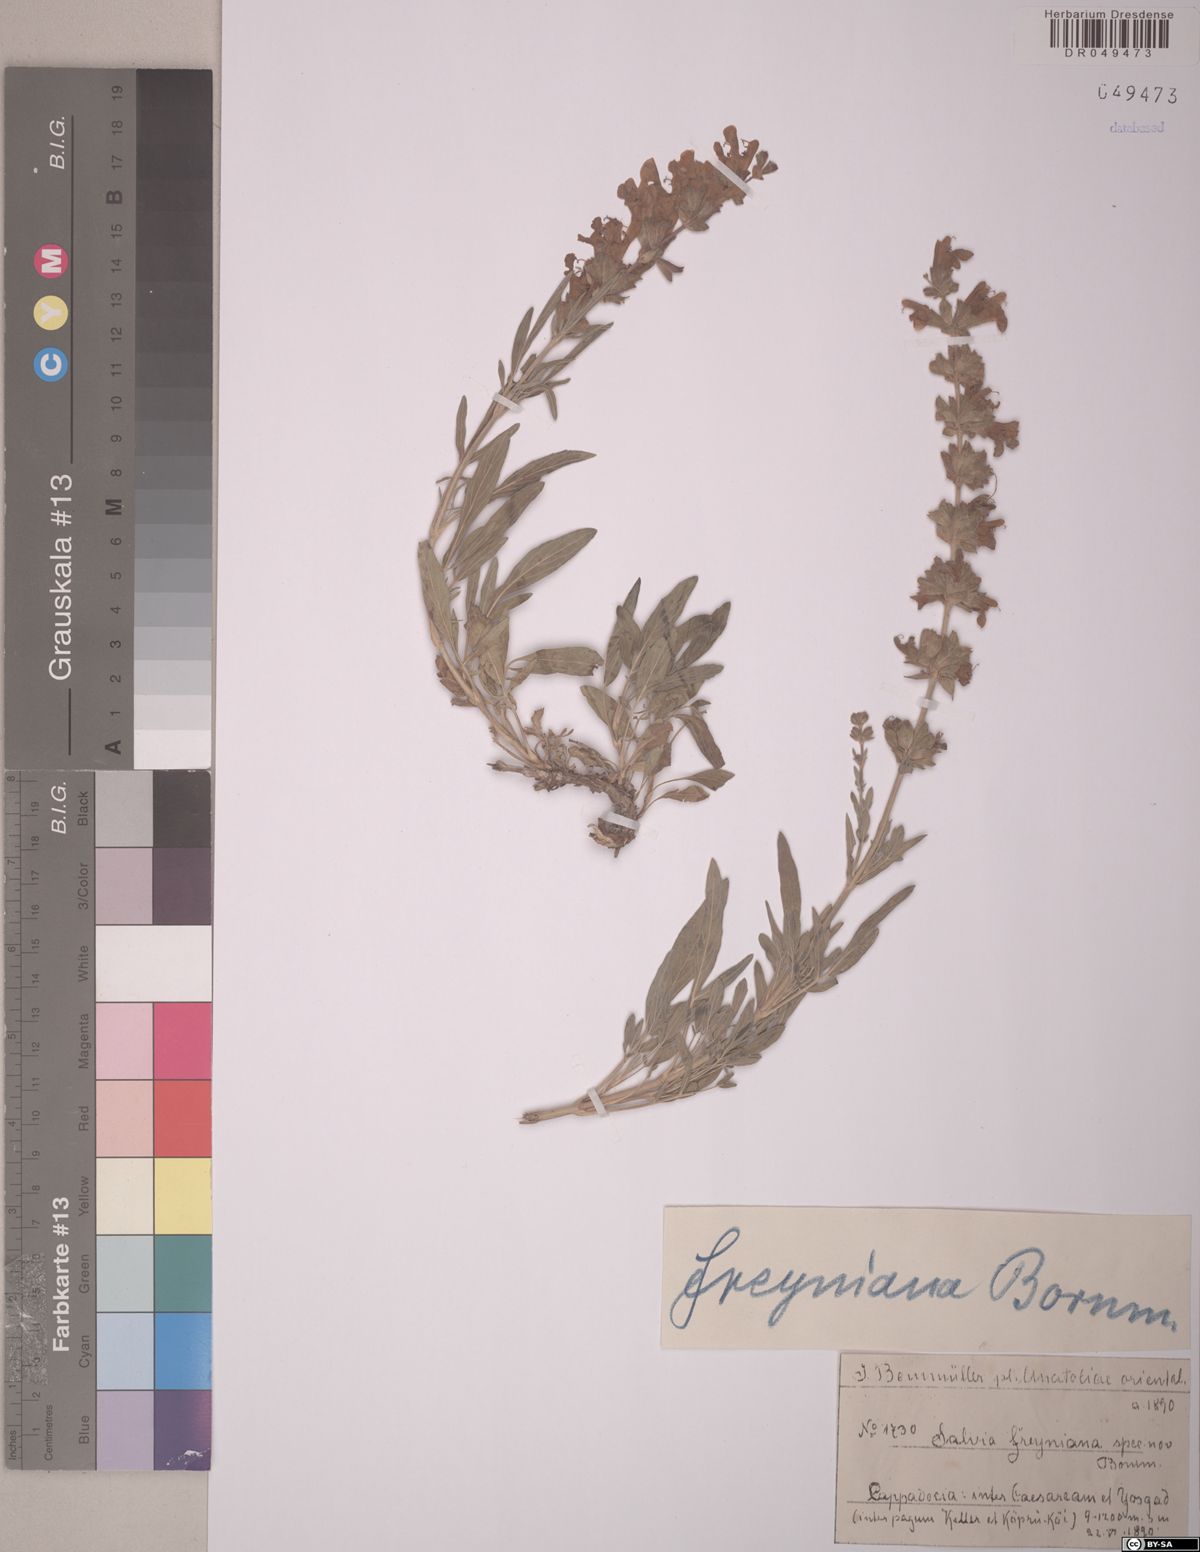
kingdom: Plantae
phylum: Tracheophyta
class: Magnoliopsida
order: Lamiales
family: Lamiaceae
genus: Salvia
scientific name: Salvia freyniana
